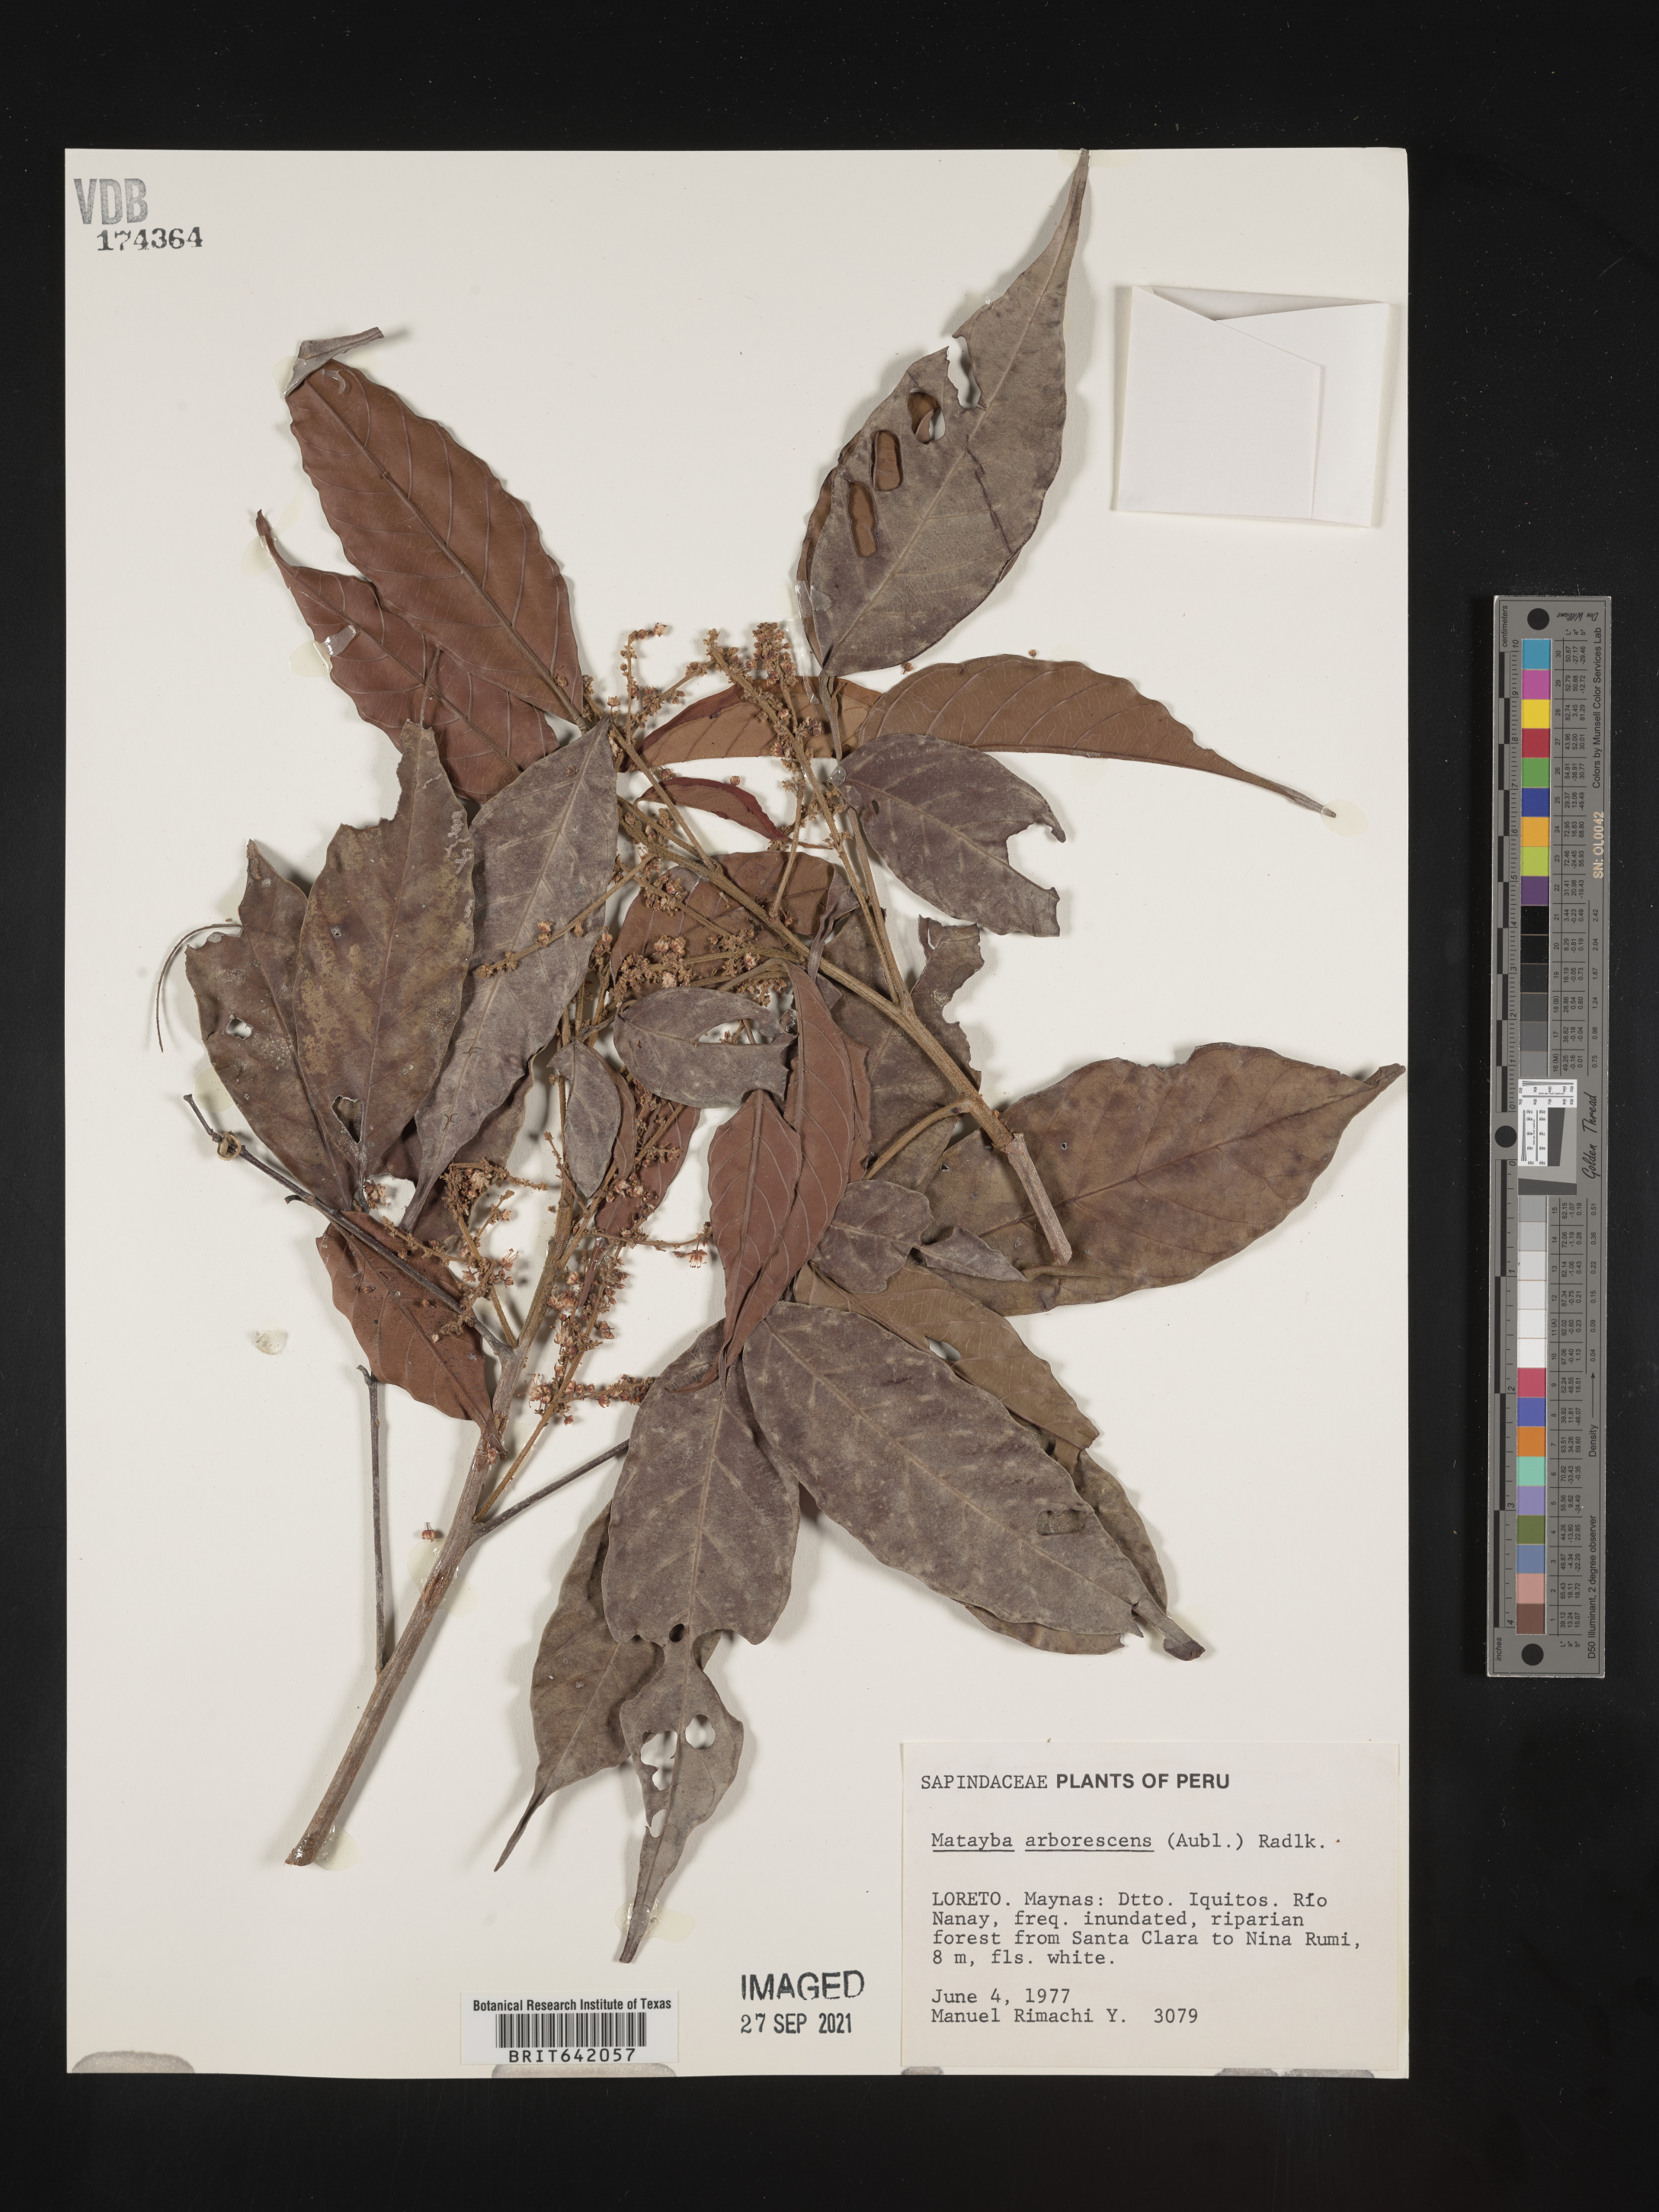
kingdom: Plantae
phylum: Tracheophyta
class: Magnoliopsida
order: Sapindales
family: Sapindaceae
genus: Matayba
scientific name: Matayba
